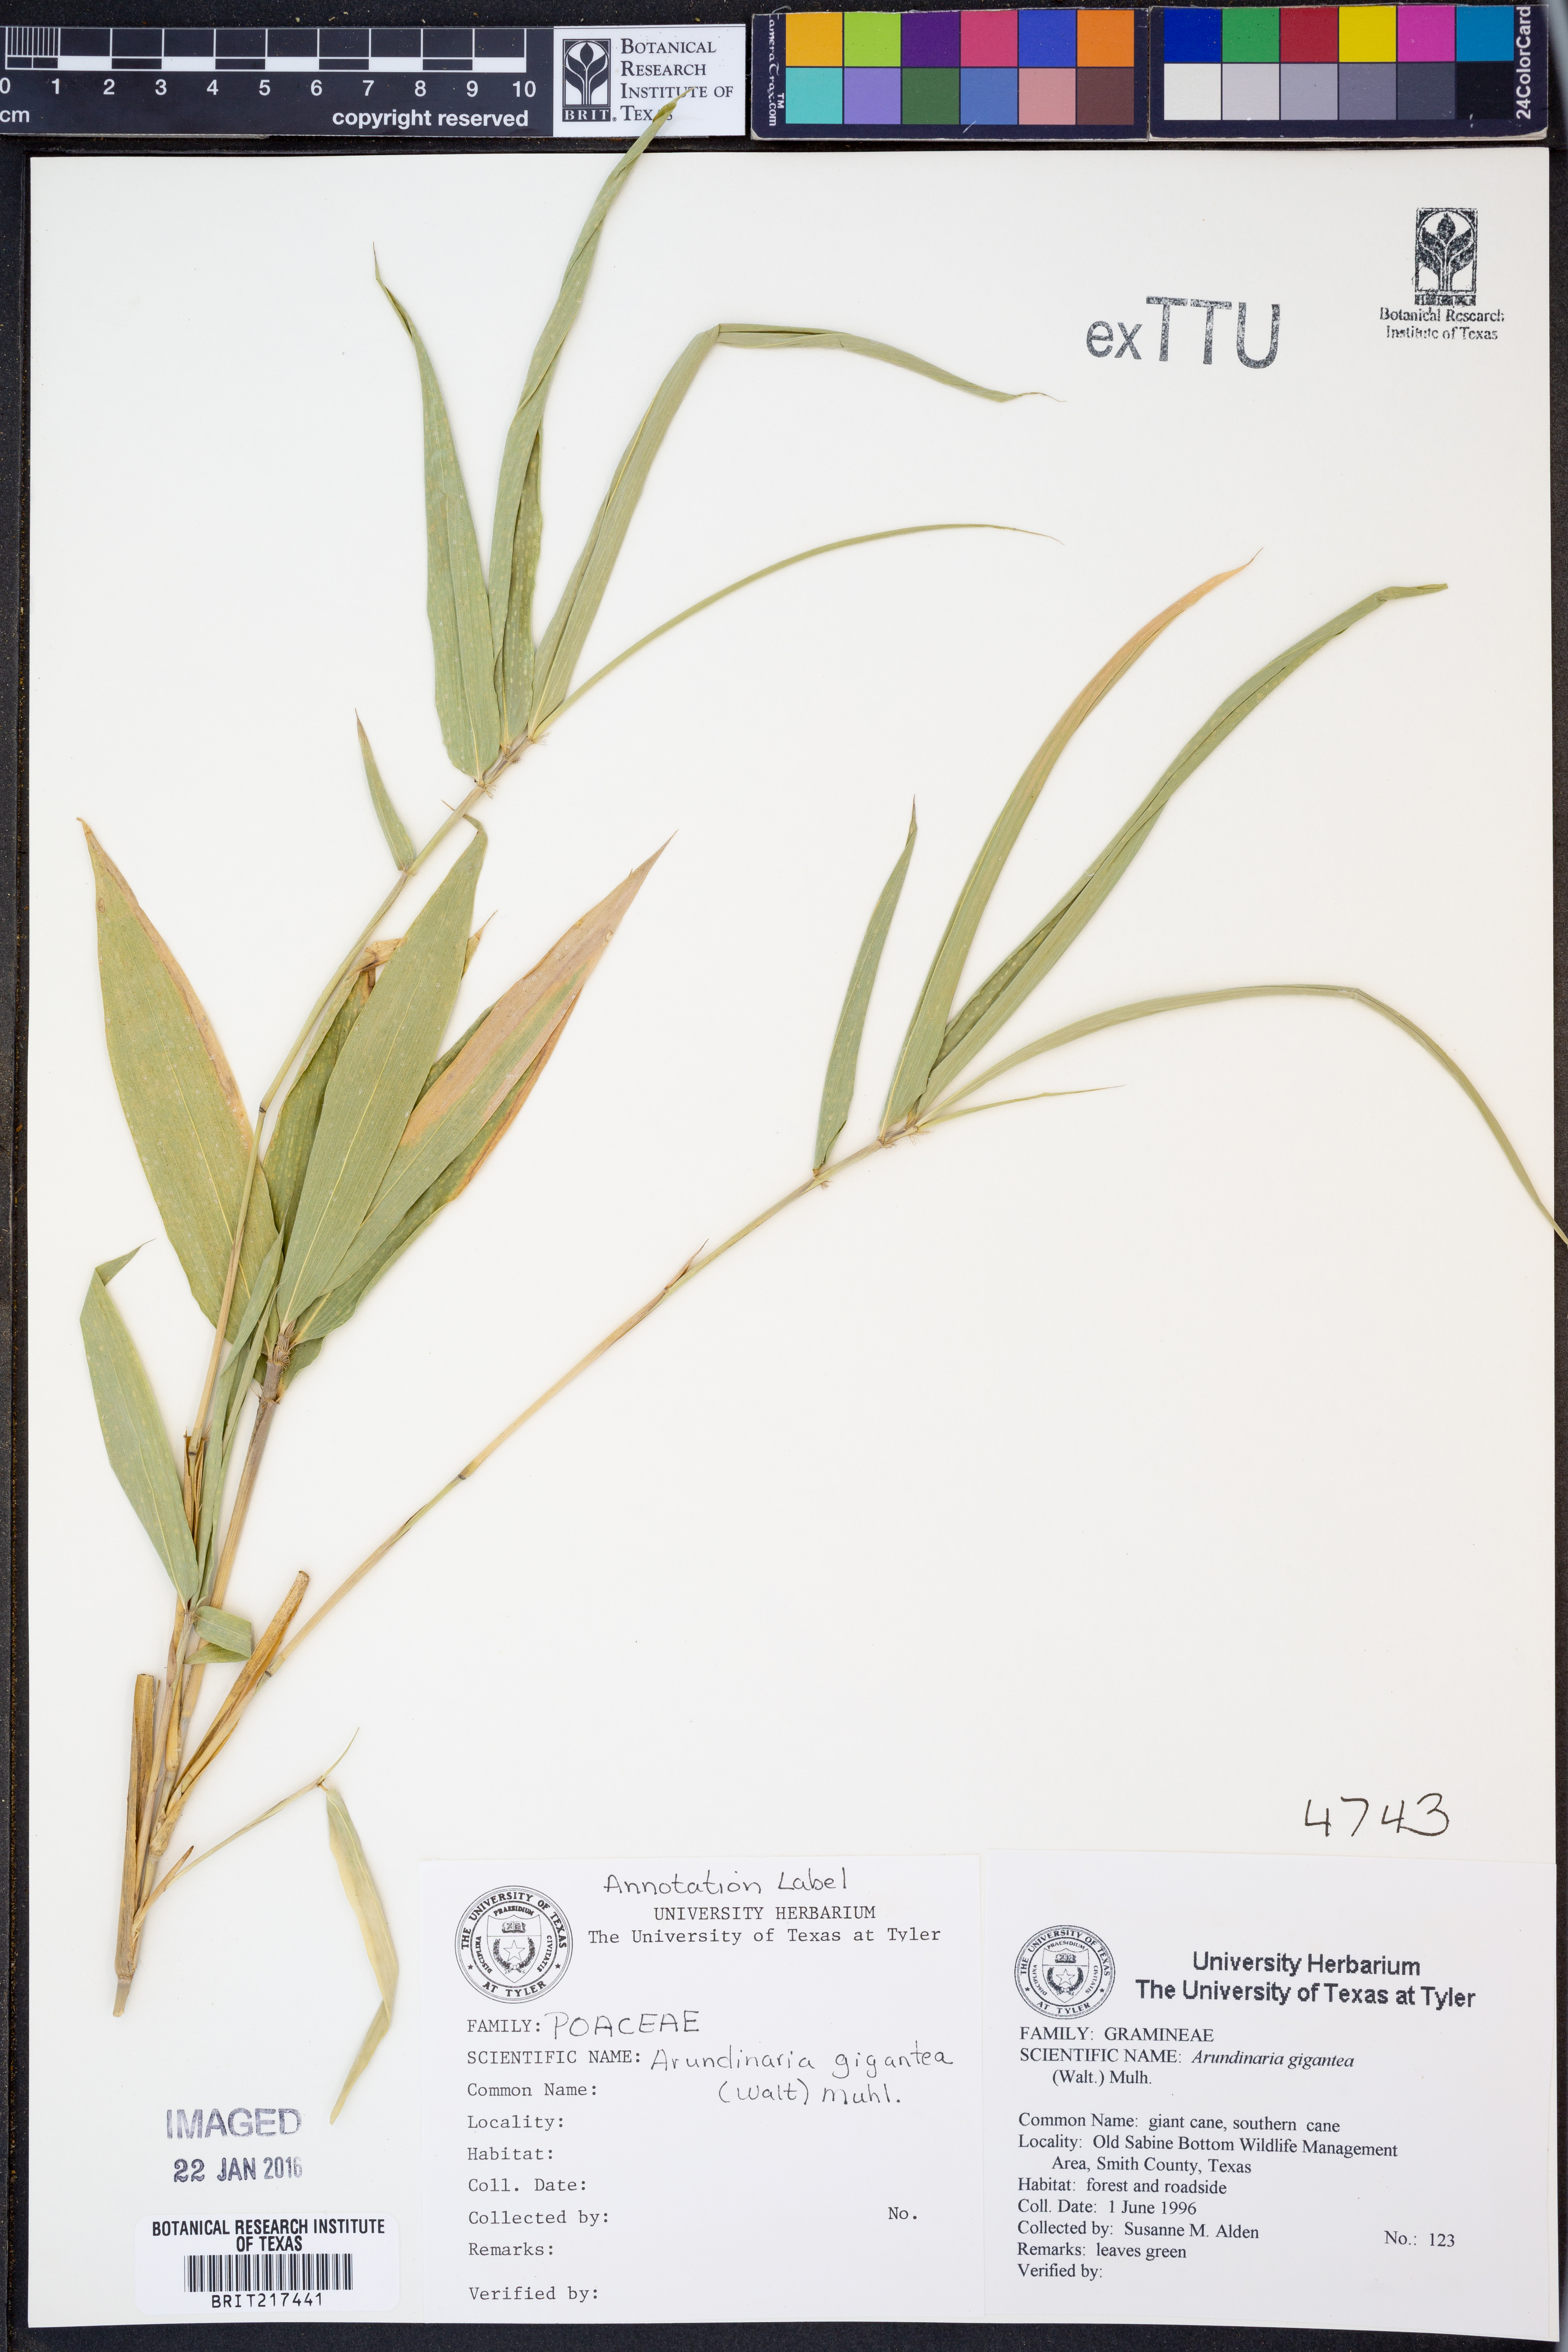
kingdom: Plantae
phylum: Tracheophyta
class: Liliopsida
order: Poales
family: Poaceae
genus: Arundinaria
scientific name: Arundinaria gigantea
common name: Giant cane
